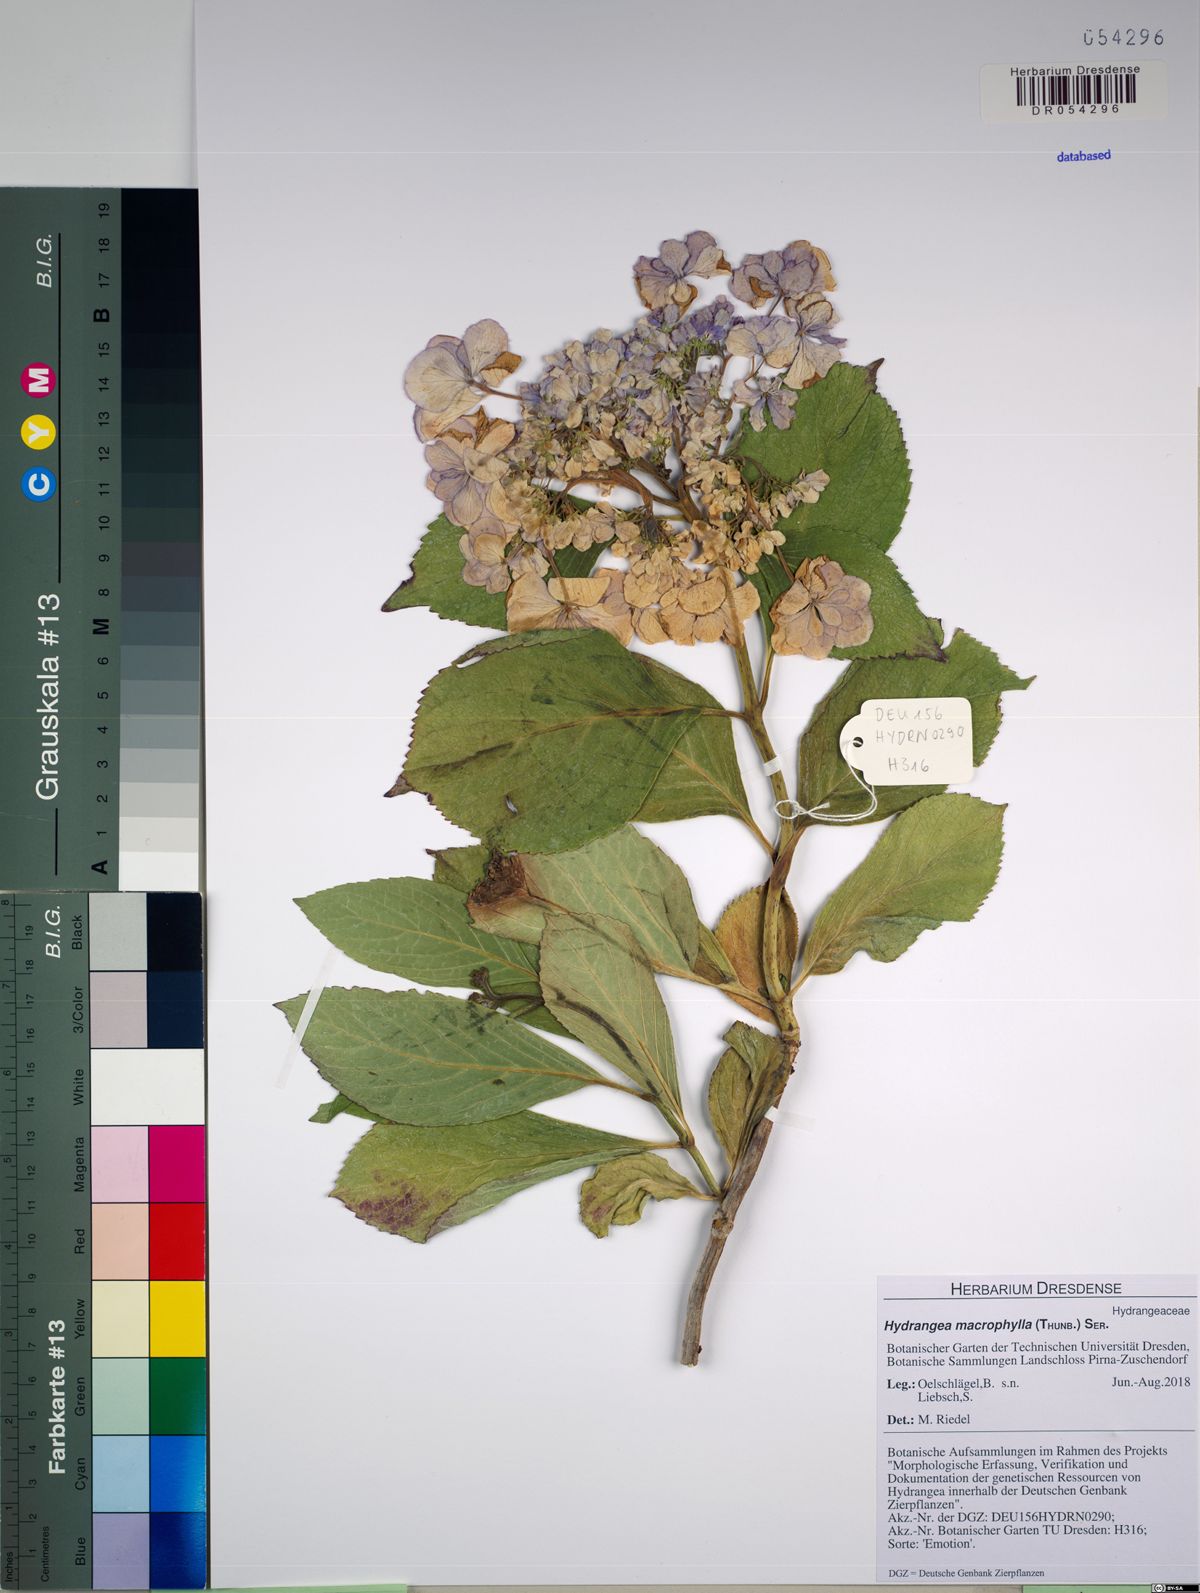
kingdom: Plantae
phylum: Tracheophyta
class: Magnoliopsida
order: Cornales
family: Hydrangeaceae
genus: Hydrangea
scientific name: Hydrangea macrophylla
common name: Hydrangea
